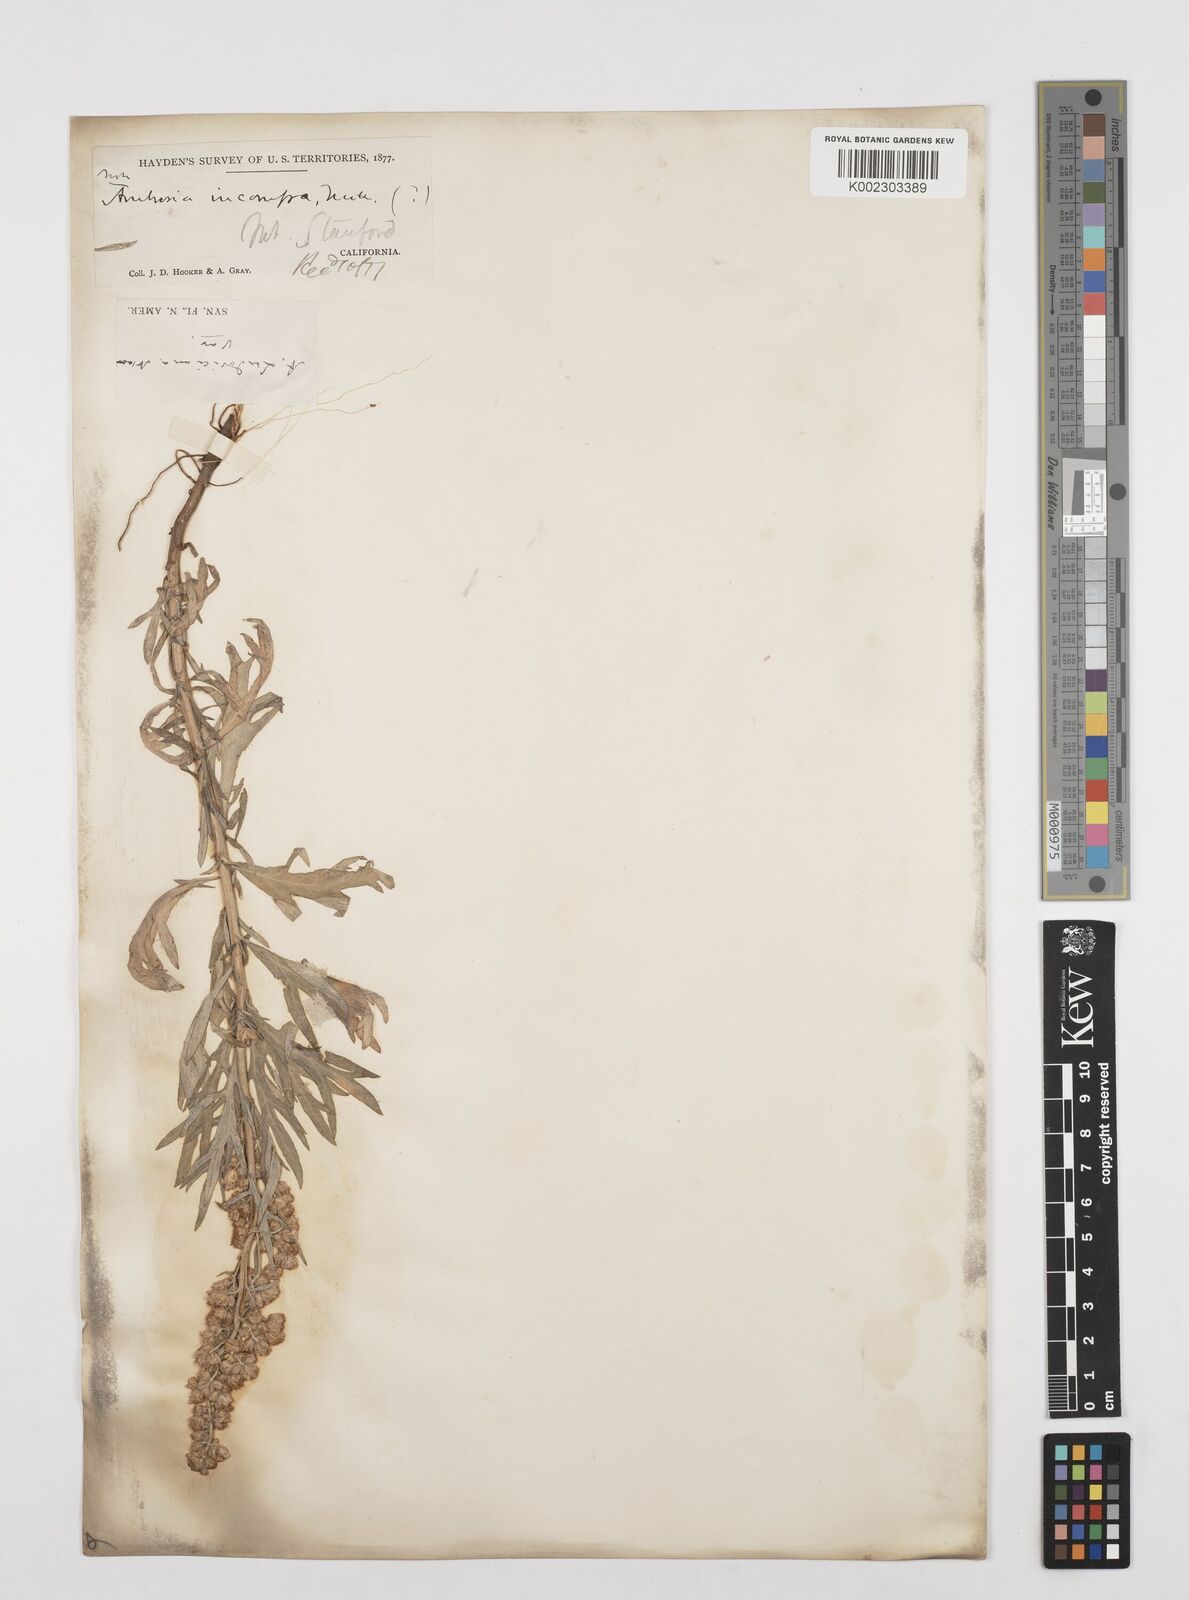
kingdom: Plantae
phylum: Tracheophyta
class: Magnoliopsida
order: Asterales
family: Asteraceae
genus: Artemisia
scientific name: Artemisia
